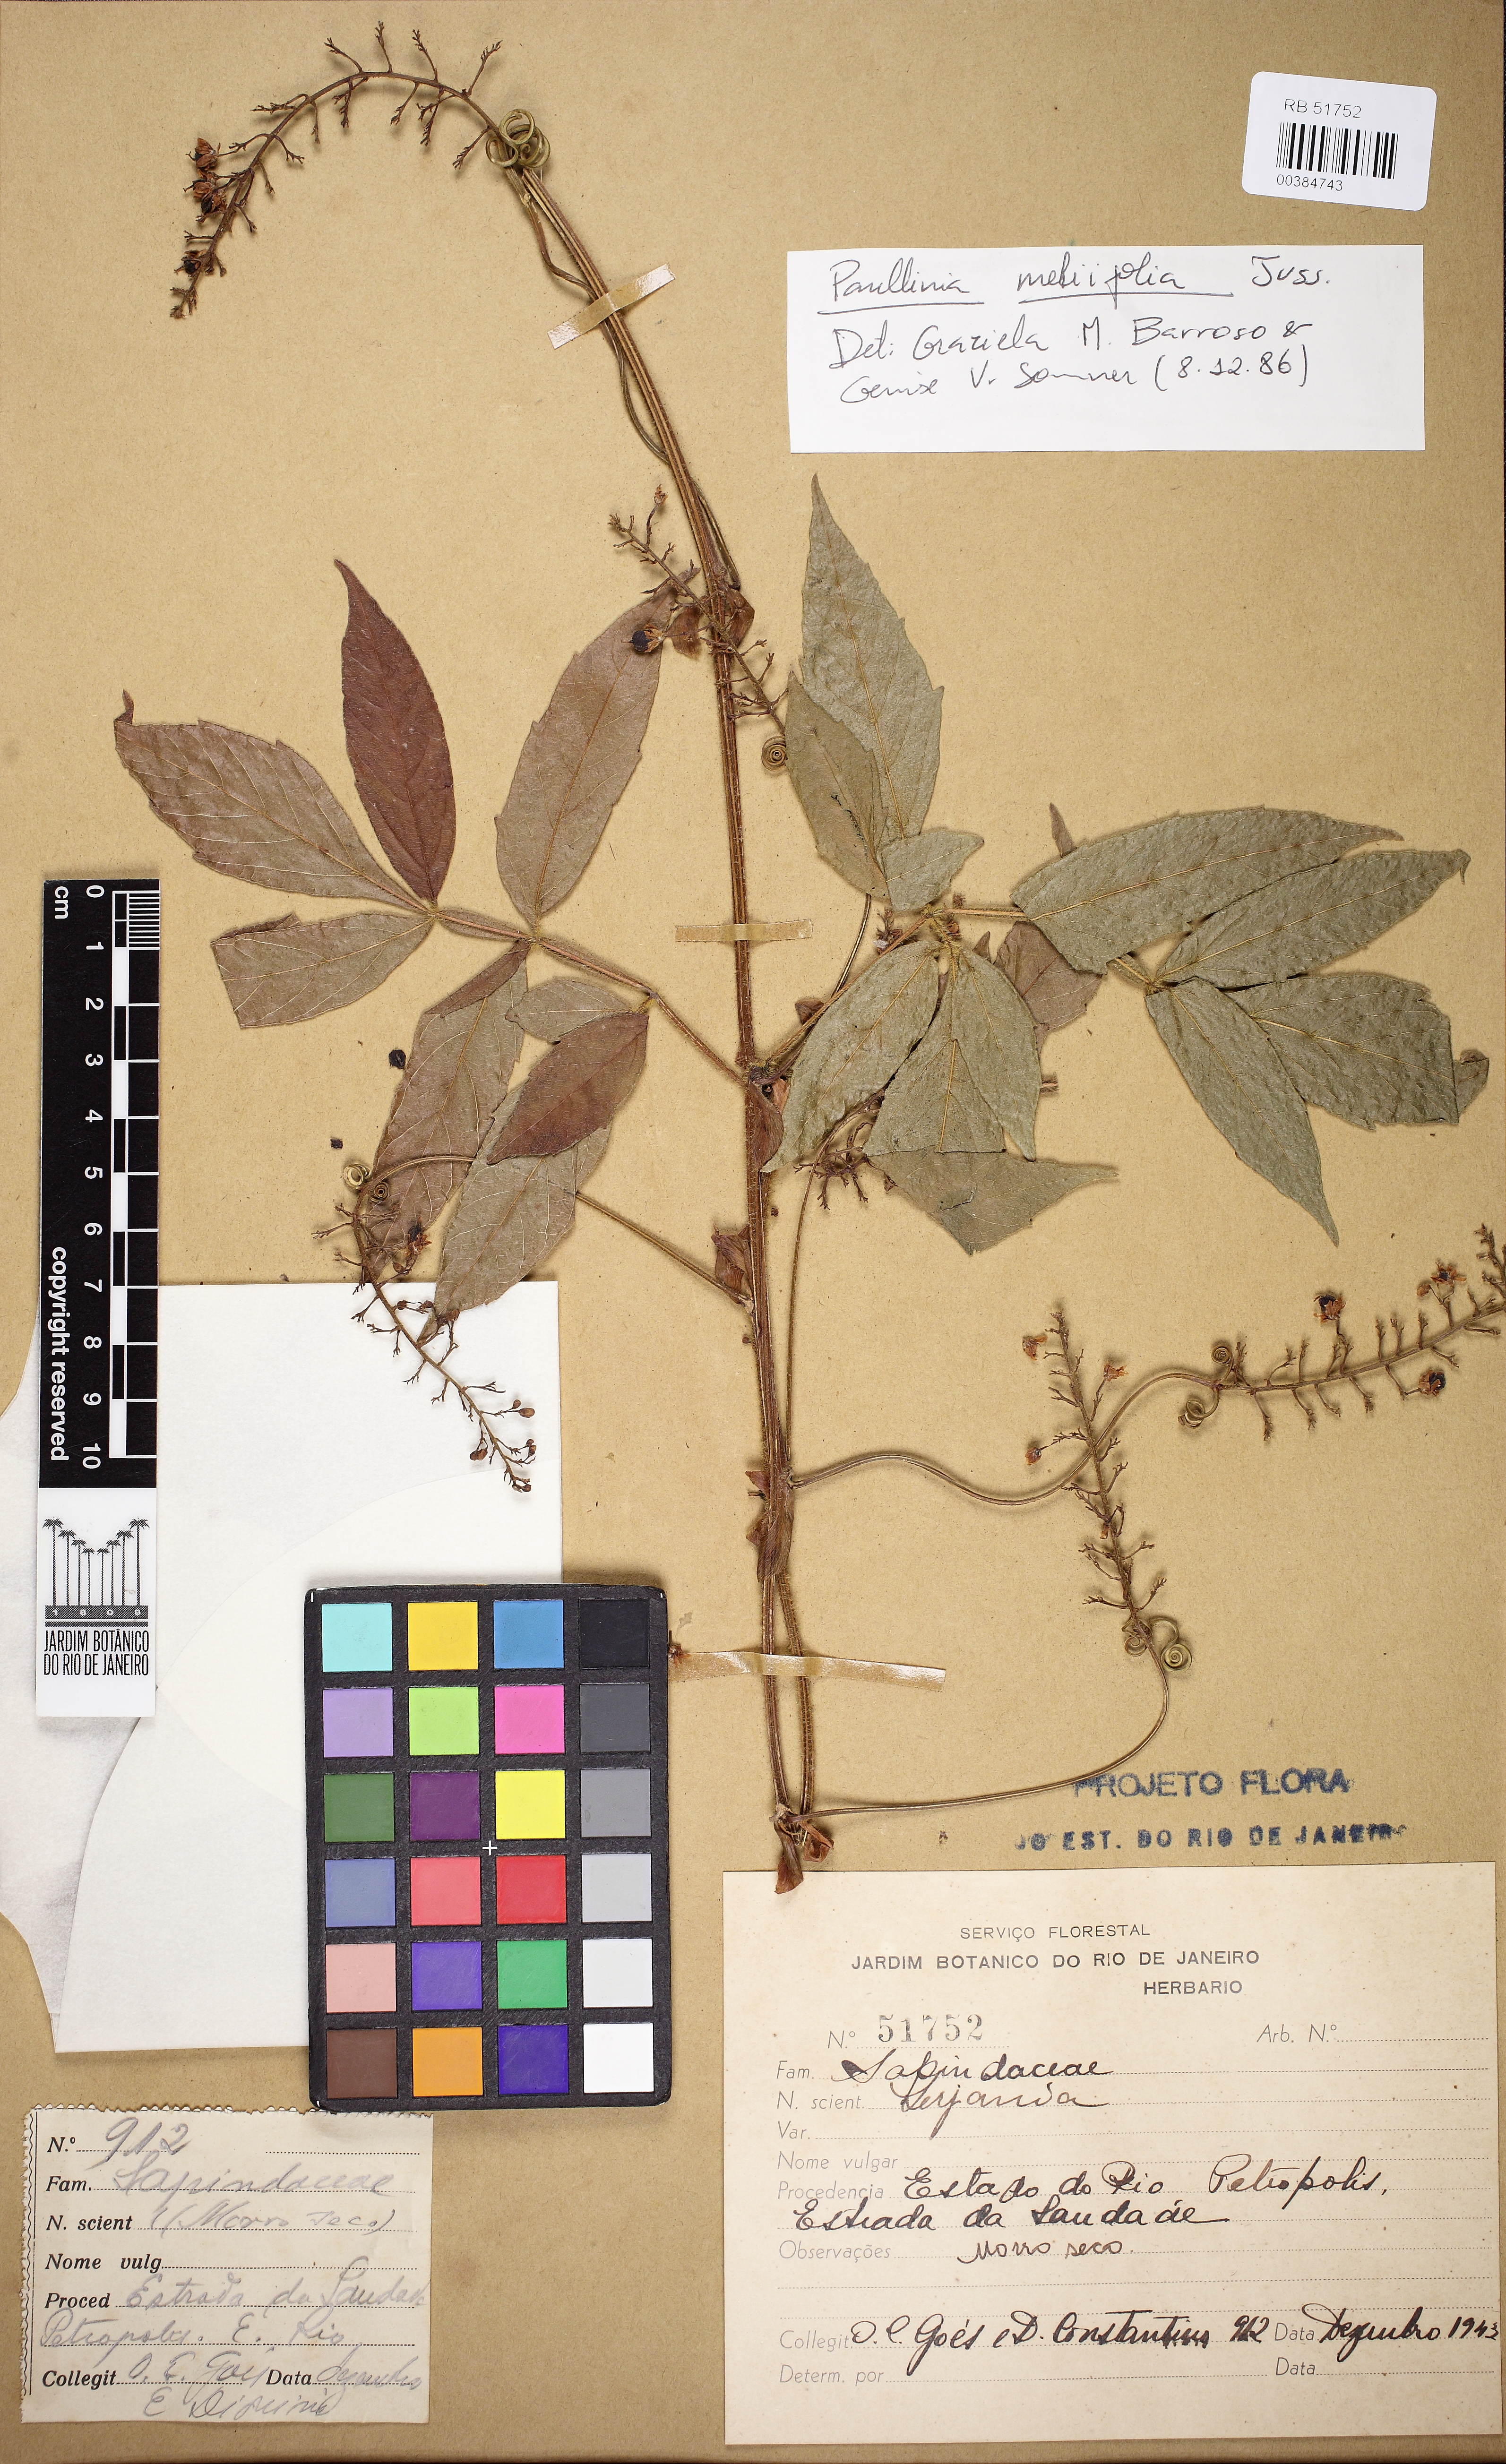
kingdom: Plantae
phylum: Tracheophyta
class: Magnoliopsida
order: Sapindales
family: Sapindaceae
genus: Paullinia
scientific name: Paullinia meliifolia
